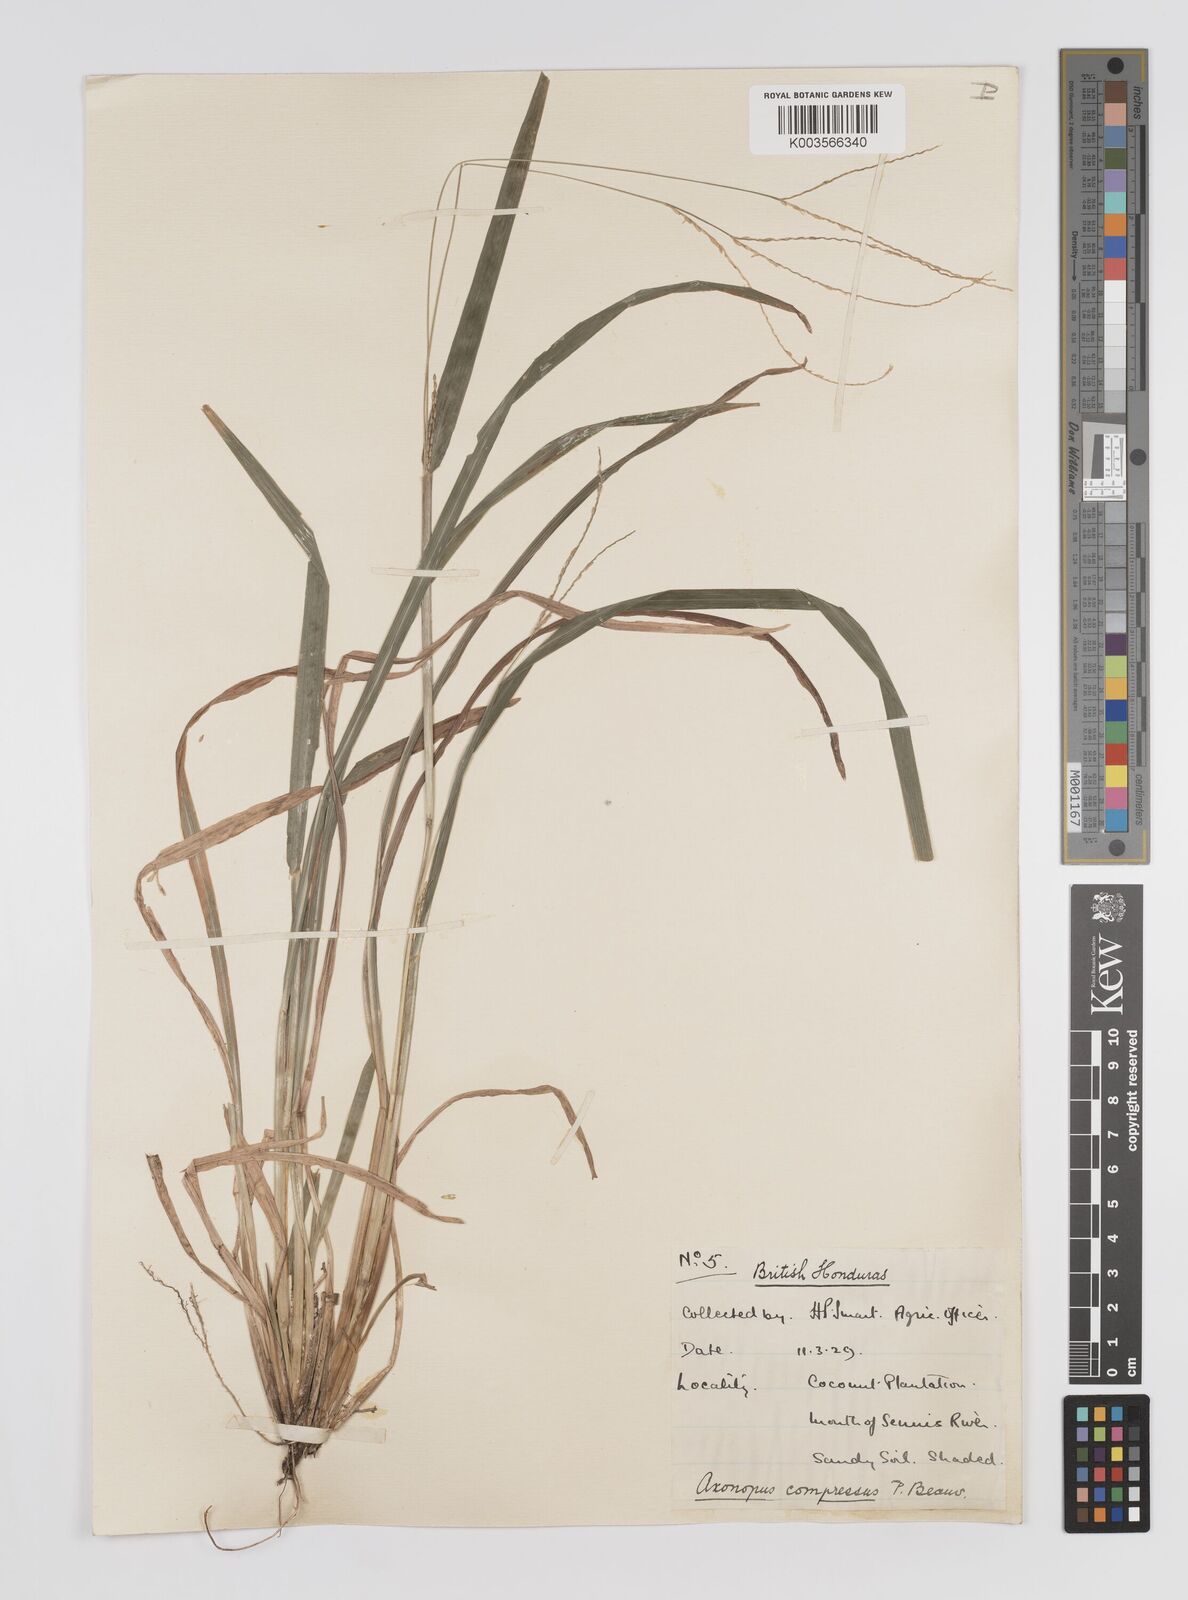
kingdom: Plantae
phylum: Tracheophyta
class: Liliopsida
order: Poales
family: Poaceae
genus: Axonopus
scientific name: Axonopus compressus
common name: American carpet grass
